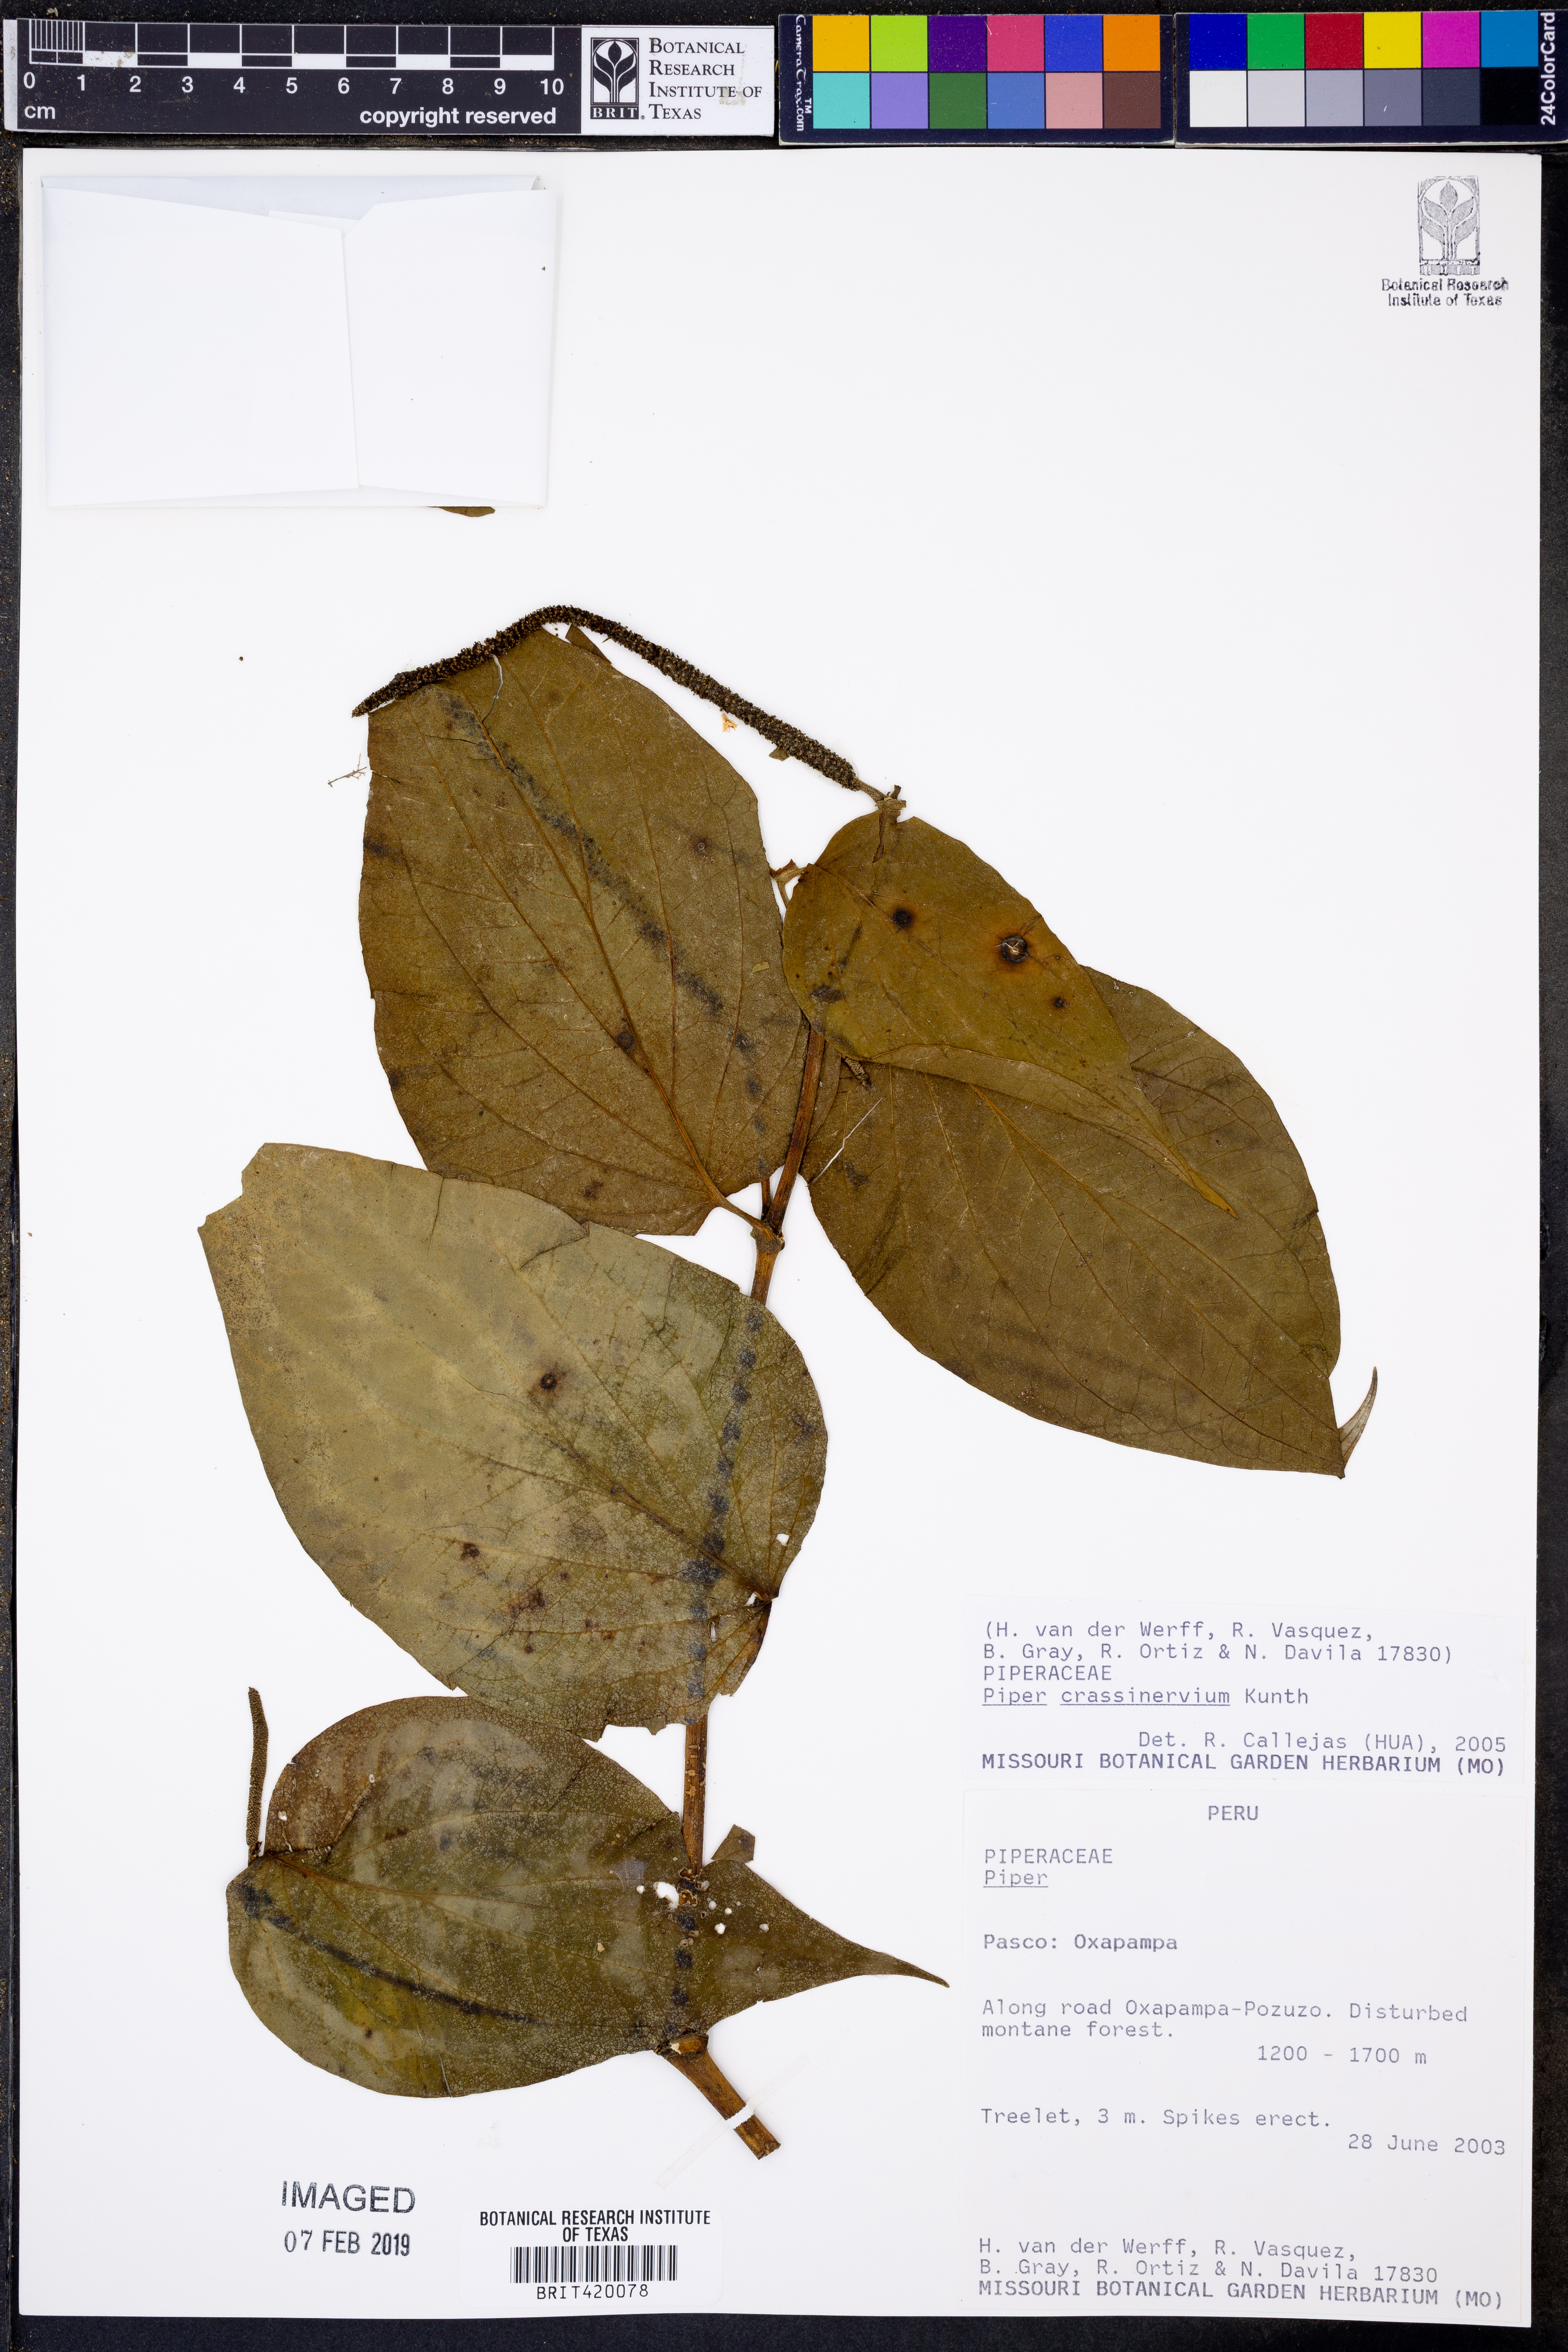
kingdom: Plantae
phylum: Tracheophyta
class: Magnoliopsida
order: Piperales
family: Piperaceae
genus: Piper
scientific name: Piper crassinervium
